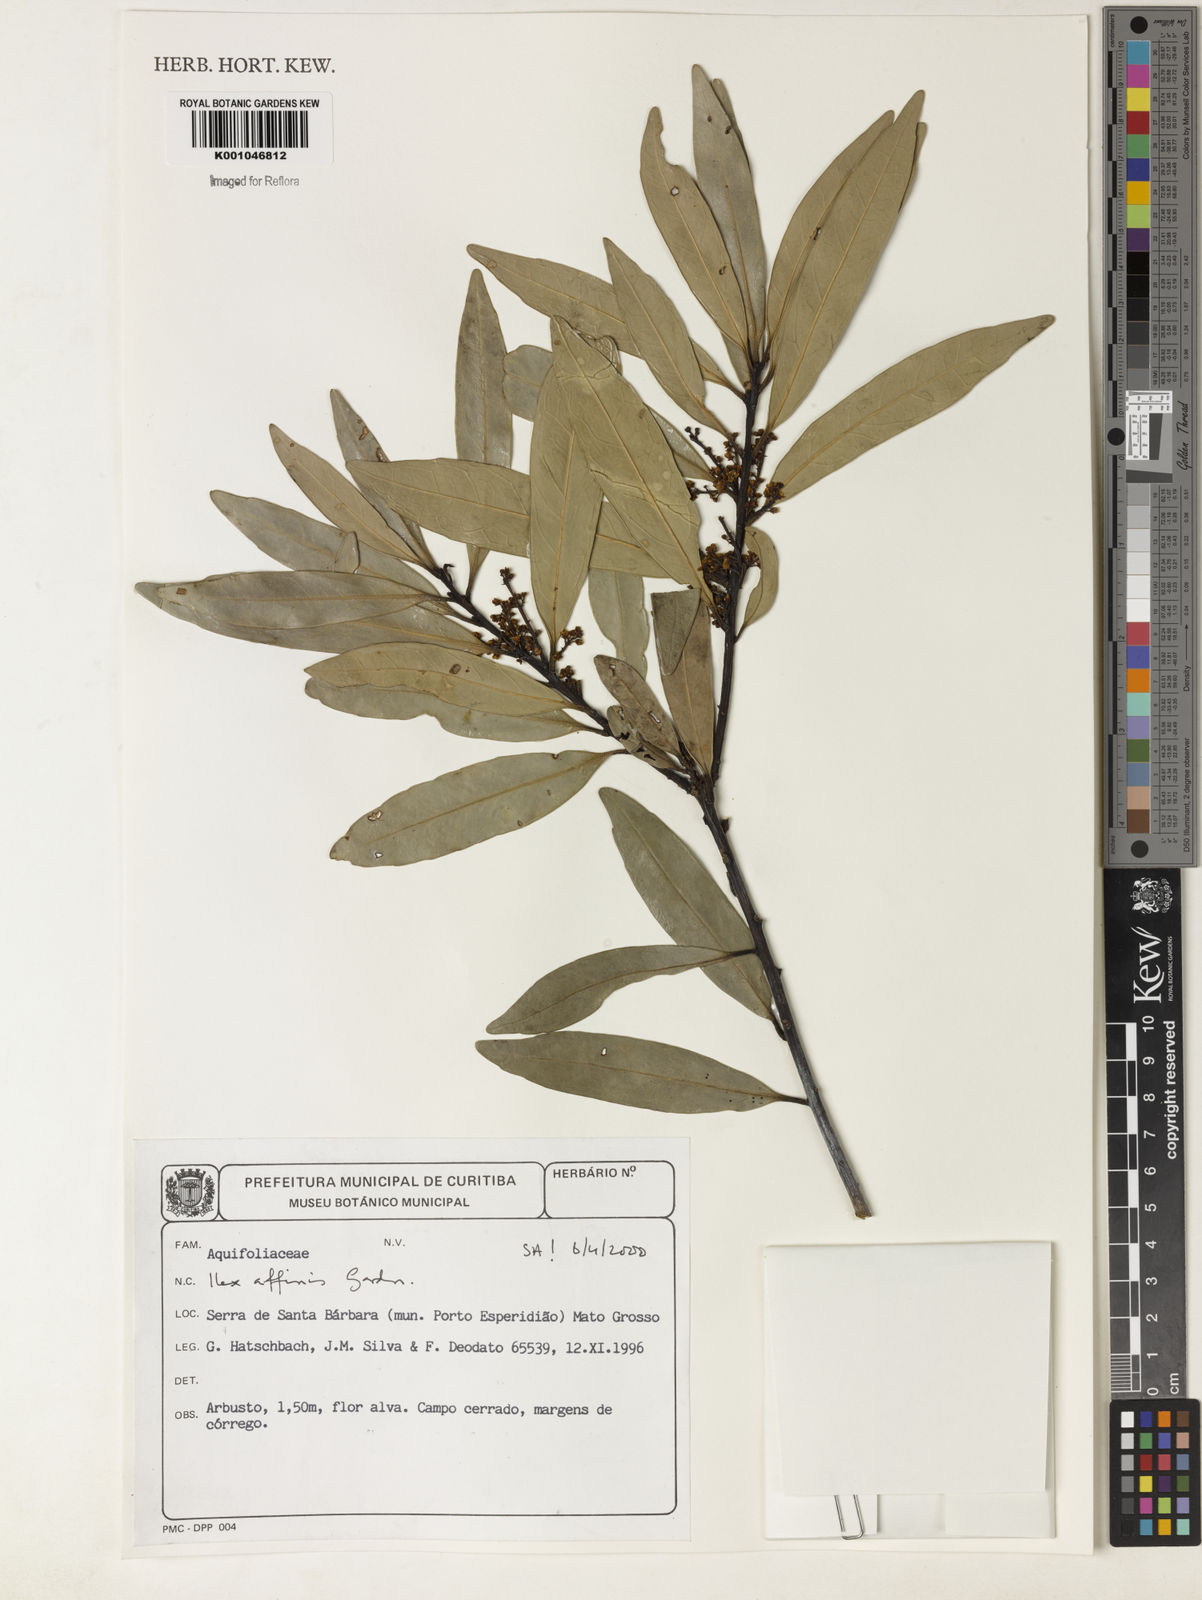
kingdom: Plantae
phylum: Tracheophyta
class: Magnoliopsida
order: Aquifoliales
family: Aquifoliaceae
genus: Ilex
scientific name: Ilex affinis
